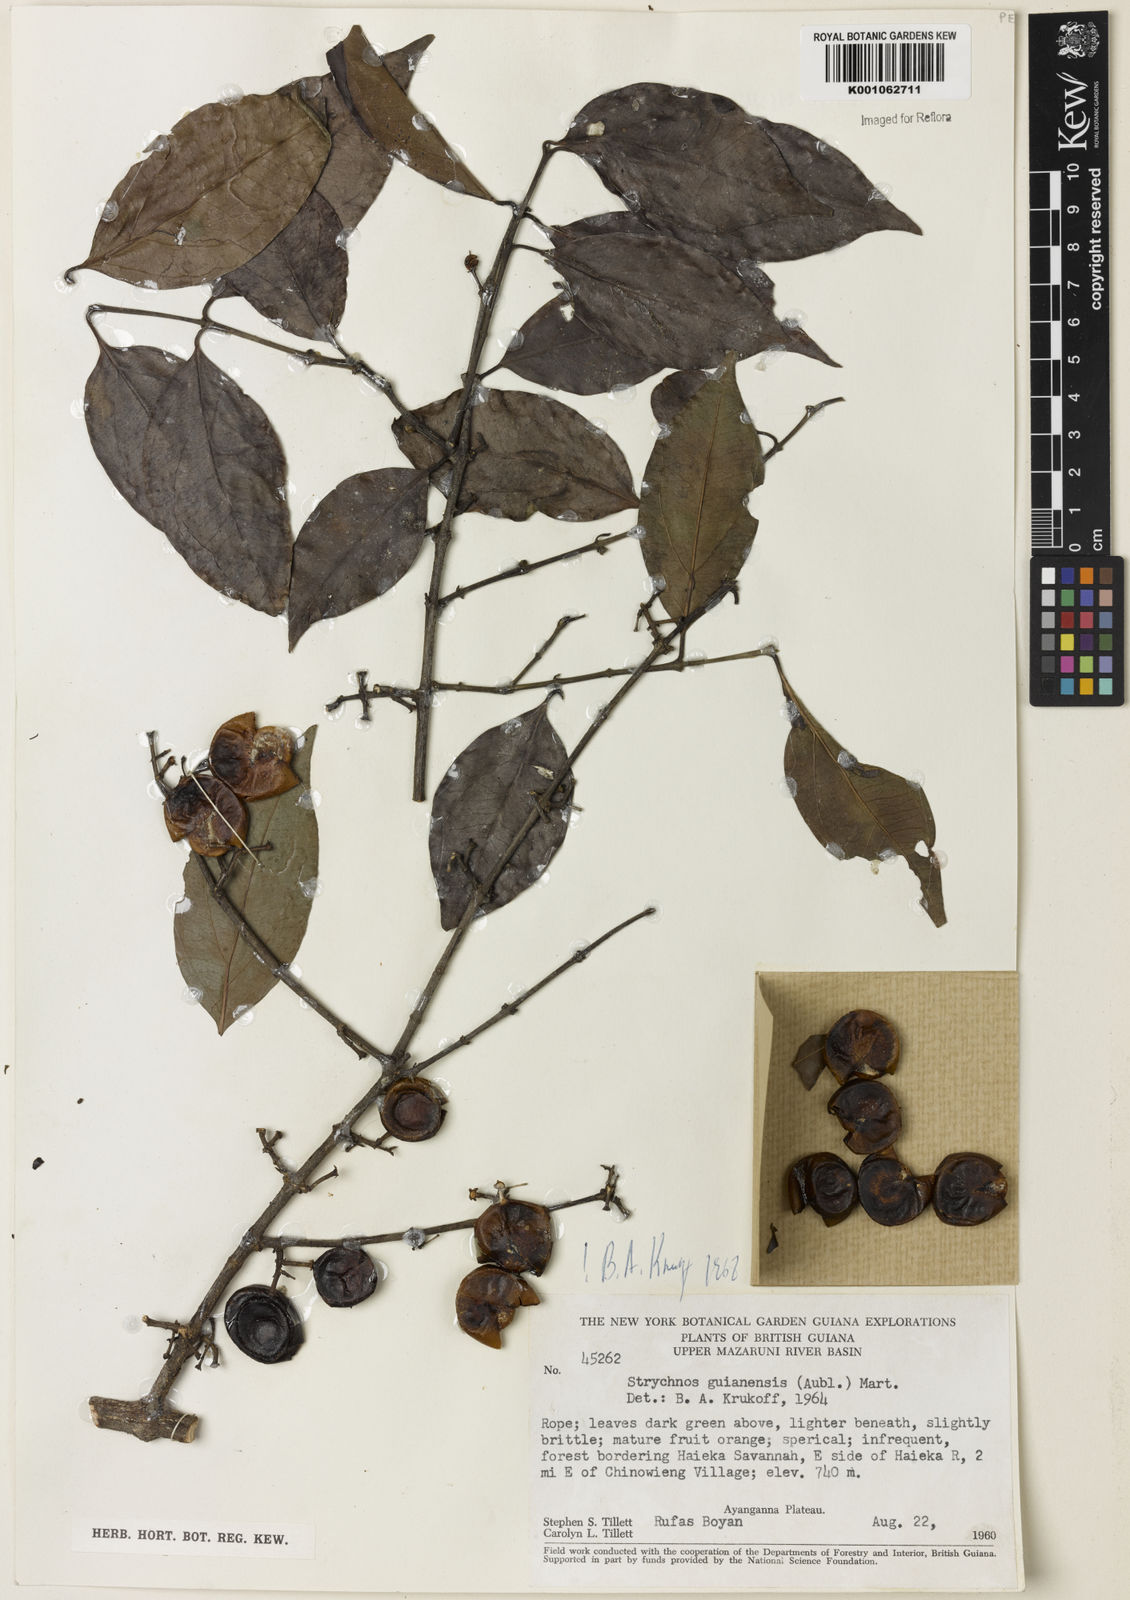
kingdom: Plantae
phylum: Tracheophyta
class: Magnoliopsida
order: Gentianales
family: Loganiaceae
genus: Strychnos
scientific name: Strychnos guianensis
